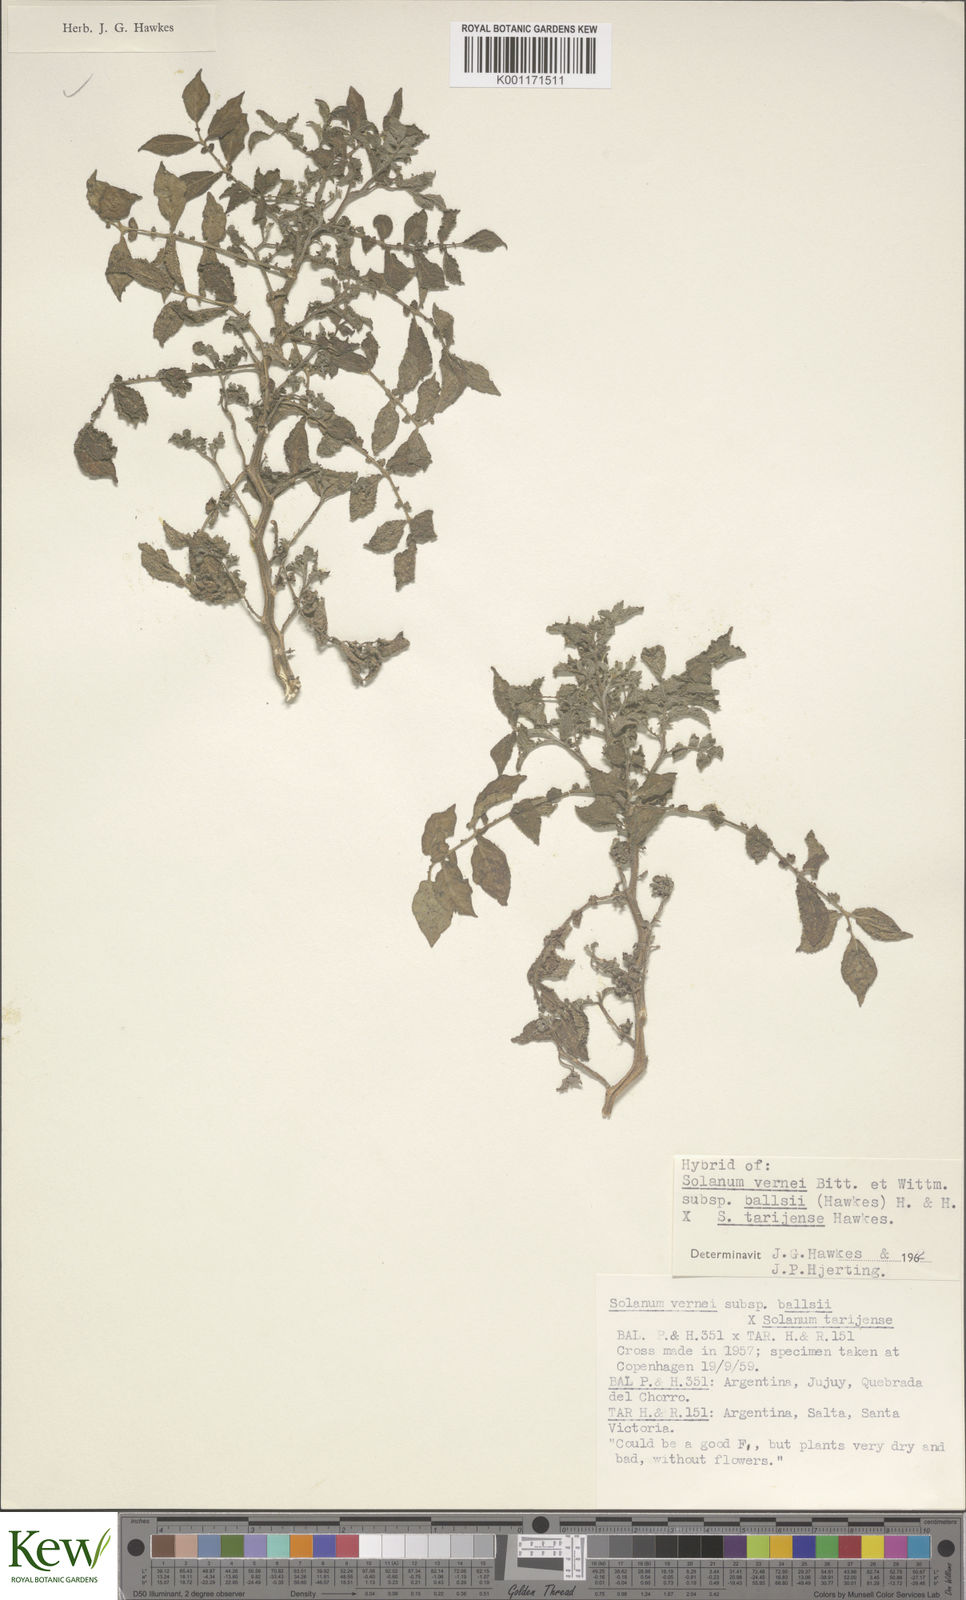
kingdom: Plantae
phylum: Tracheophyta
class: Magnoliopsida
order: Solanales
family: Solanaceae
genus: Solanum
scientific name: Solanum vernei
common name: Purple potato
